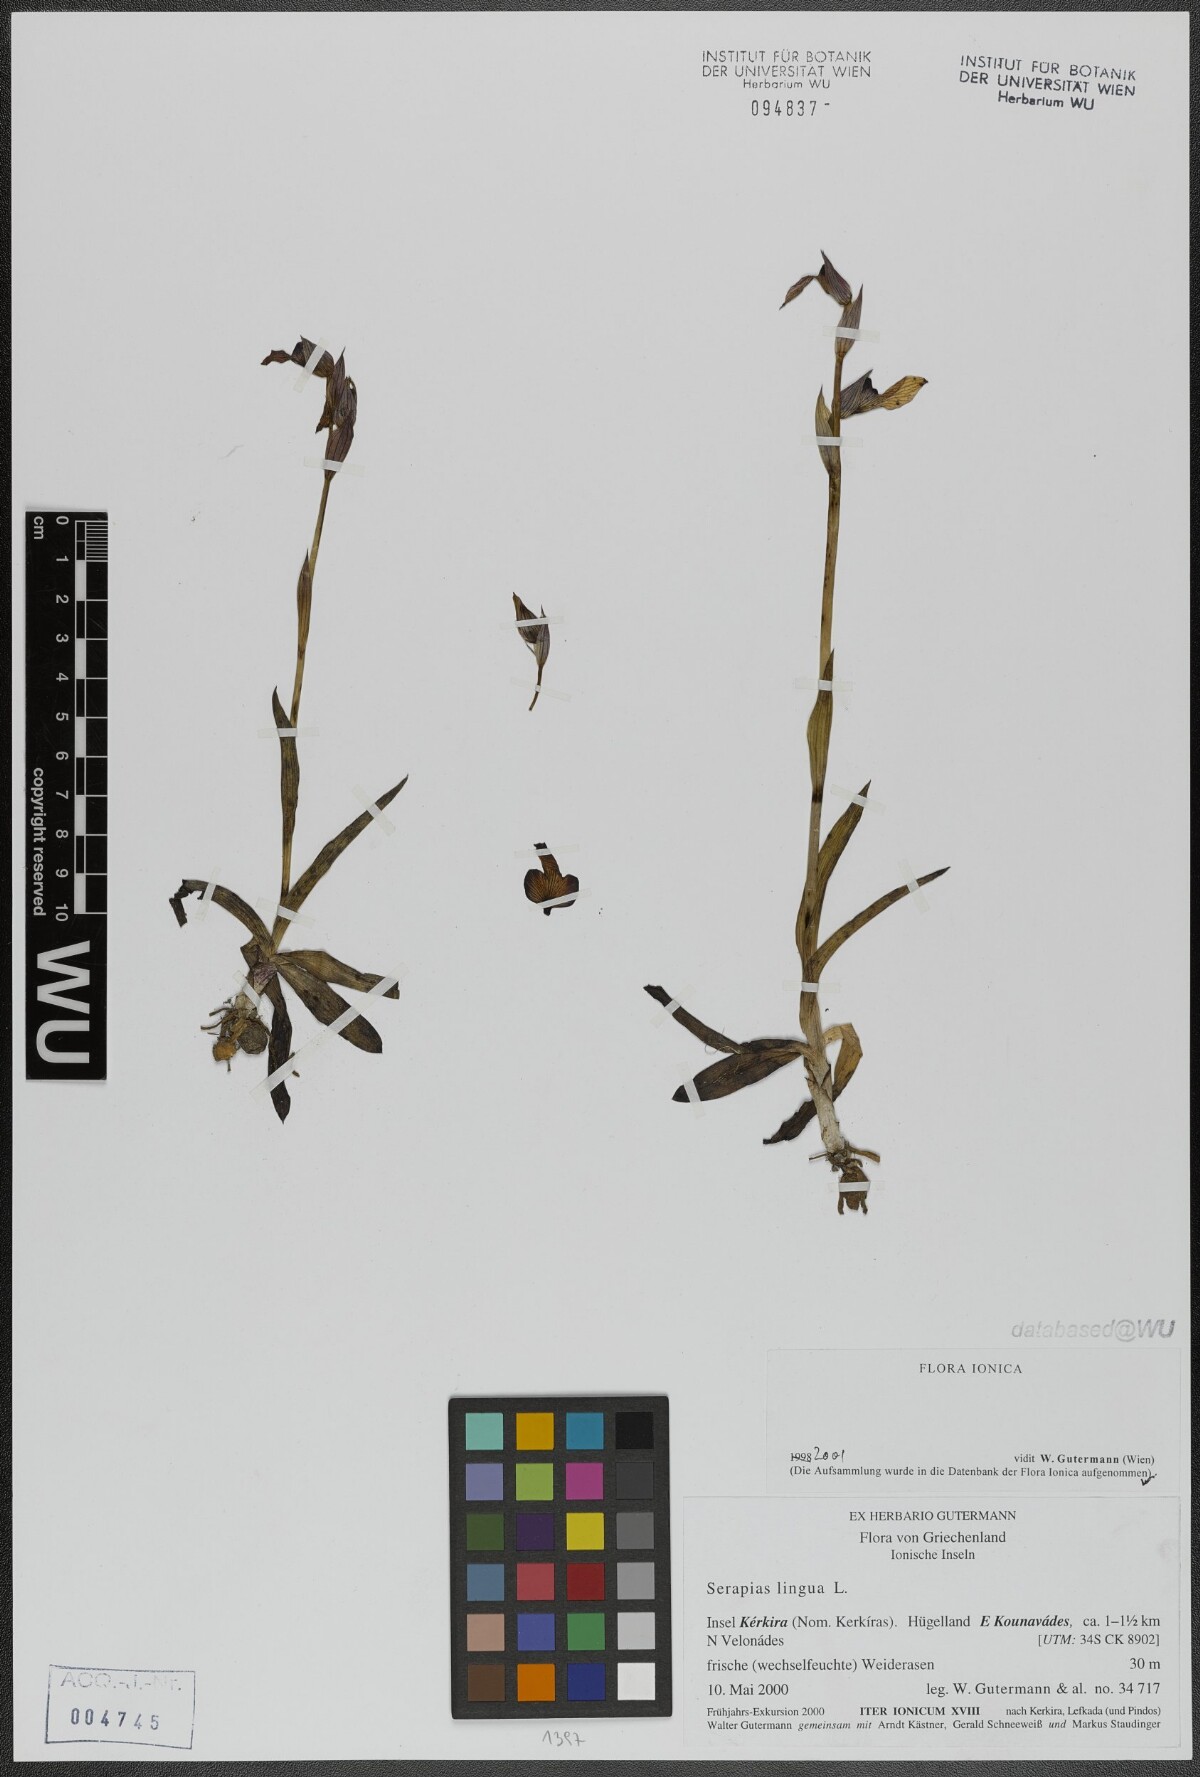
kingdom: Plantae
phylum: Tracheophyta
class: Liliopsida
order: Asparagales
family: Orchidaceae
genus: Serapias
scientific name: Serapias lingua
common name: Tongue-orchid
